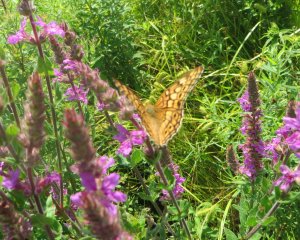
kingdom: Animalia
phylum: Arthropoda
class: Insecta
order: Lepidoptera
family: Nymphalidae
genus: Euptoieta
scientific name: Euptoieta claudia
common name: Variegated Fritillary
